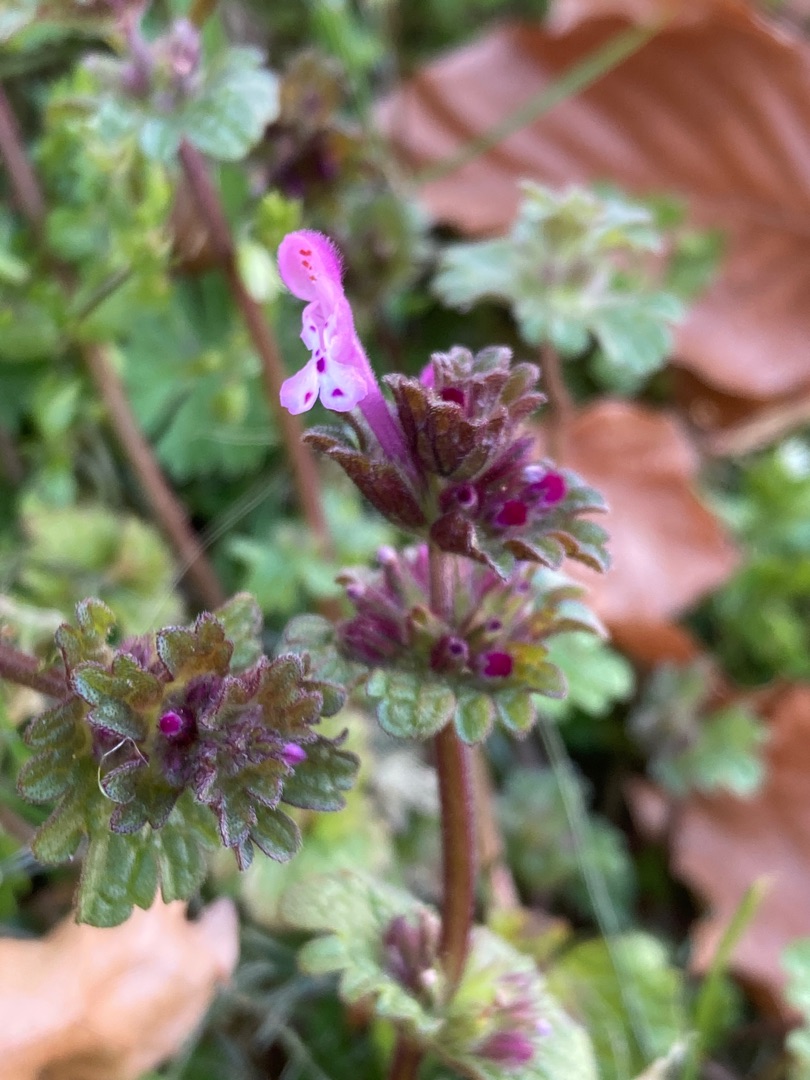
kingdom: Plantae
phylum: Tracheophyta
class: Magnoliopsida
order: Lamiales
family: Lamiaceae
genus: Lamium
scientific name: Lamium amplexicaule
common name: Liden tvetand
